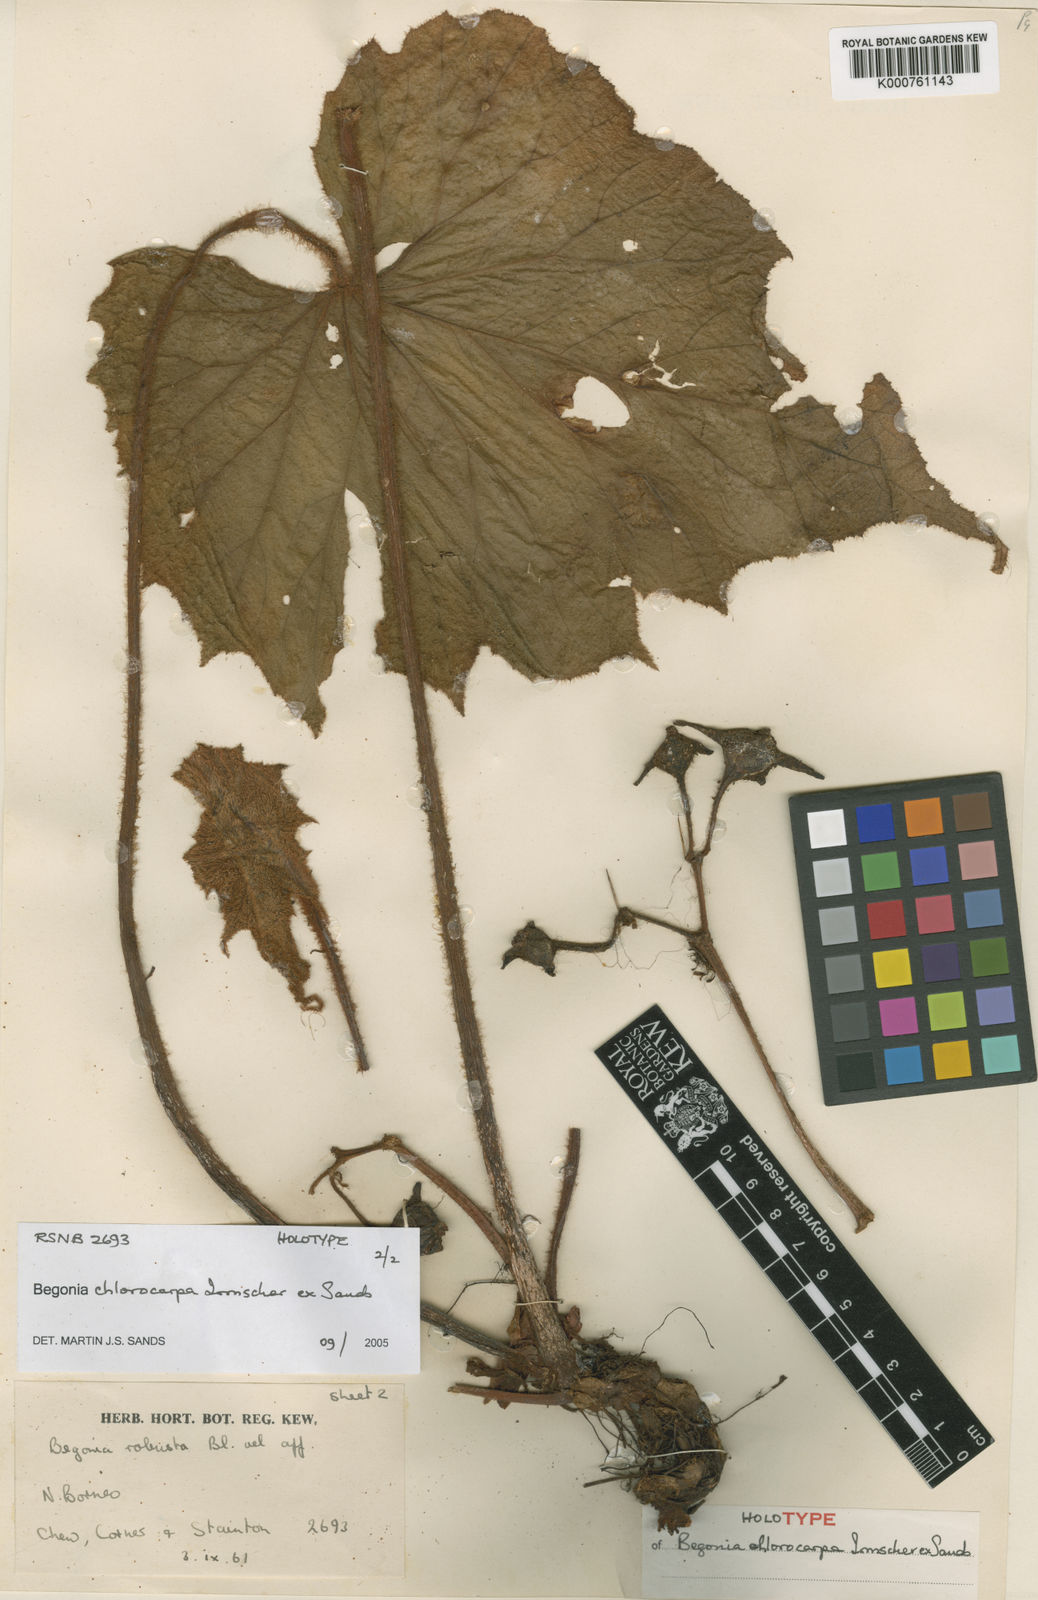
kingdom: Plantae
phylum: Tracheophyta
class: Magnoliopsida
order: Cucurbitales
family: Begoniaceae
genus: Begonia
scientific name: Begonia chlorocarpa
